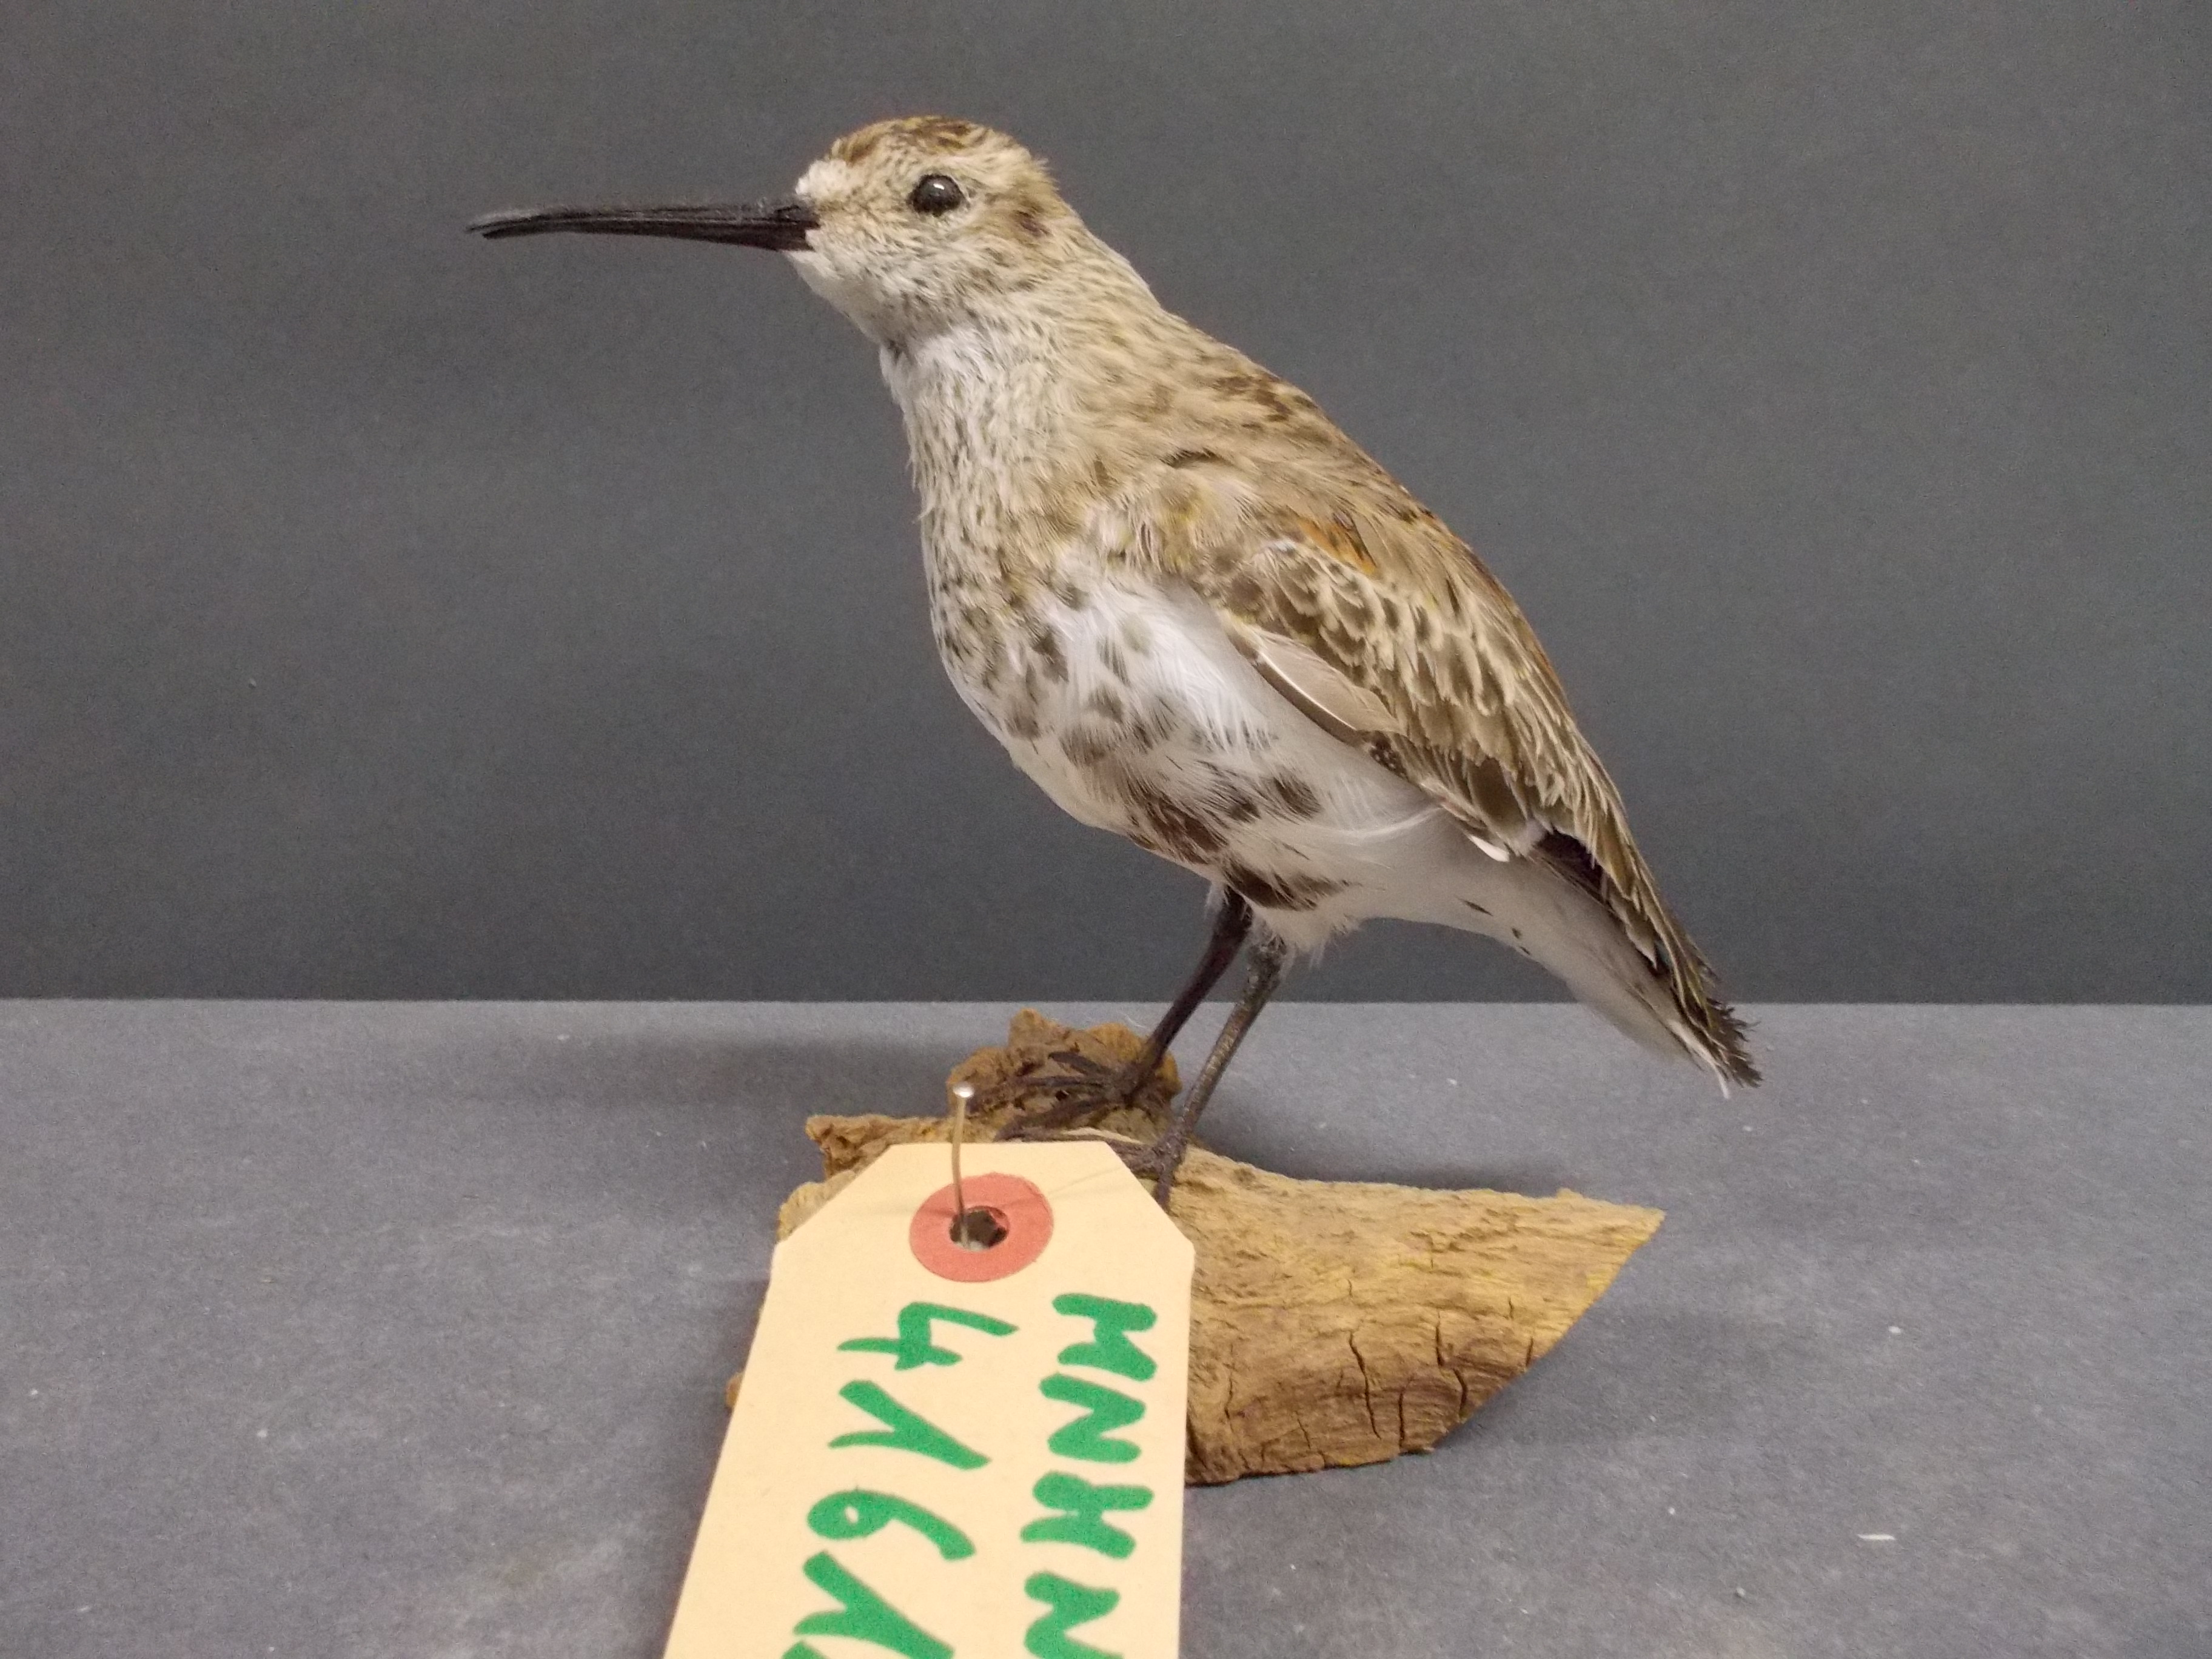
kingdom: Animalia
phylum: Chordata
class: Aves
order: Charadriiformes
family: Scolopacidae
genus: Calidris
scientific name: Calidris alpina
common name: Dunlin
